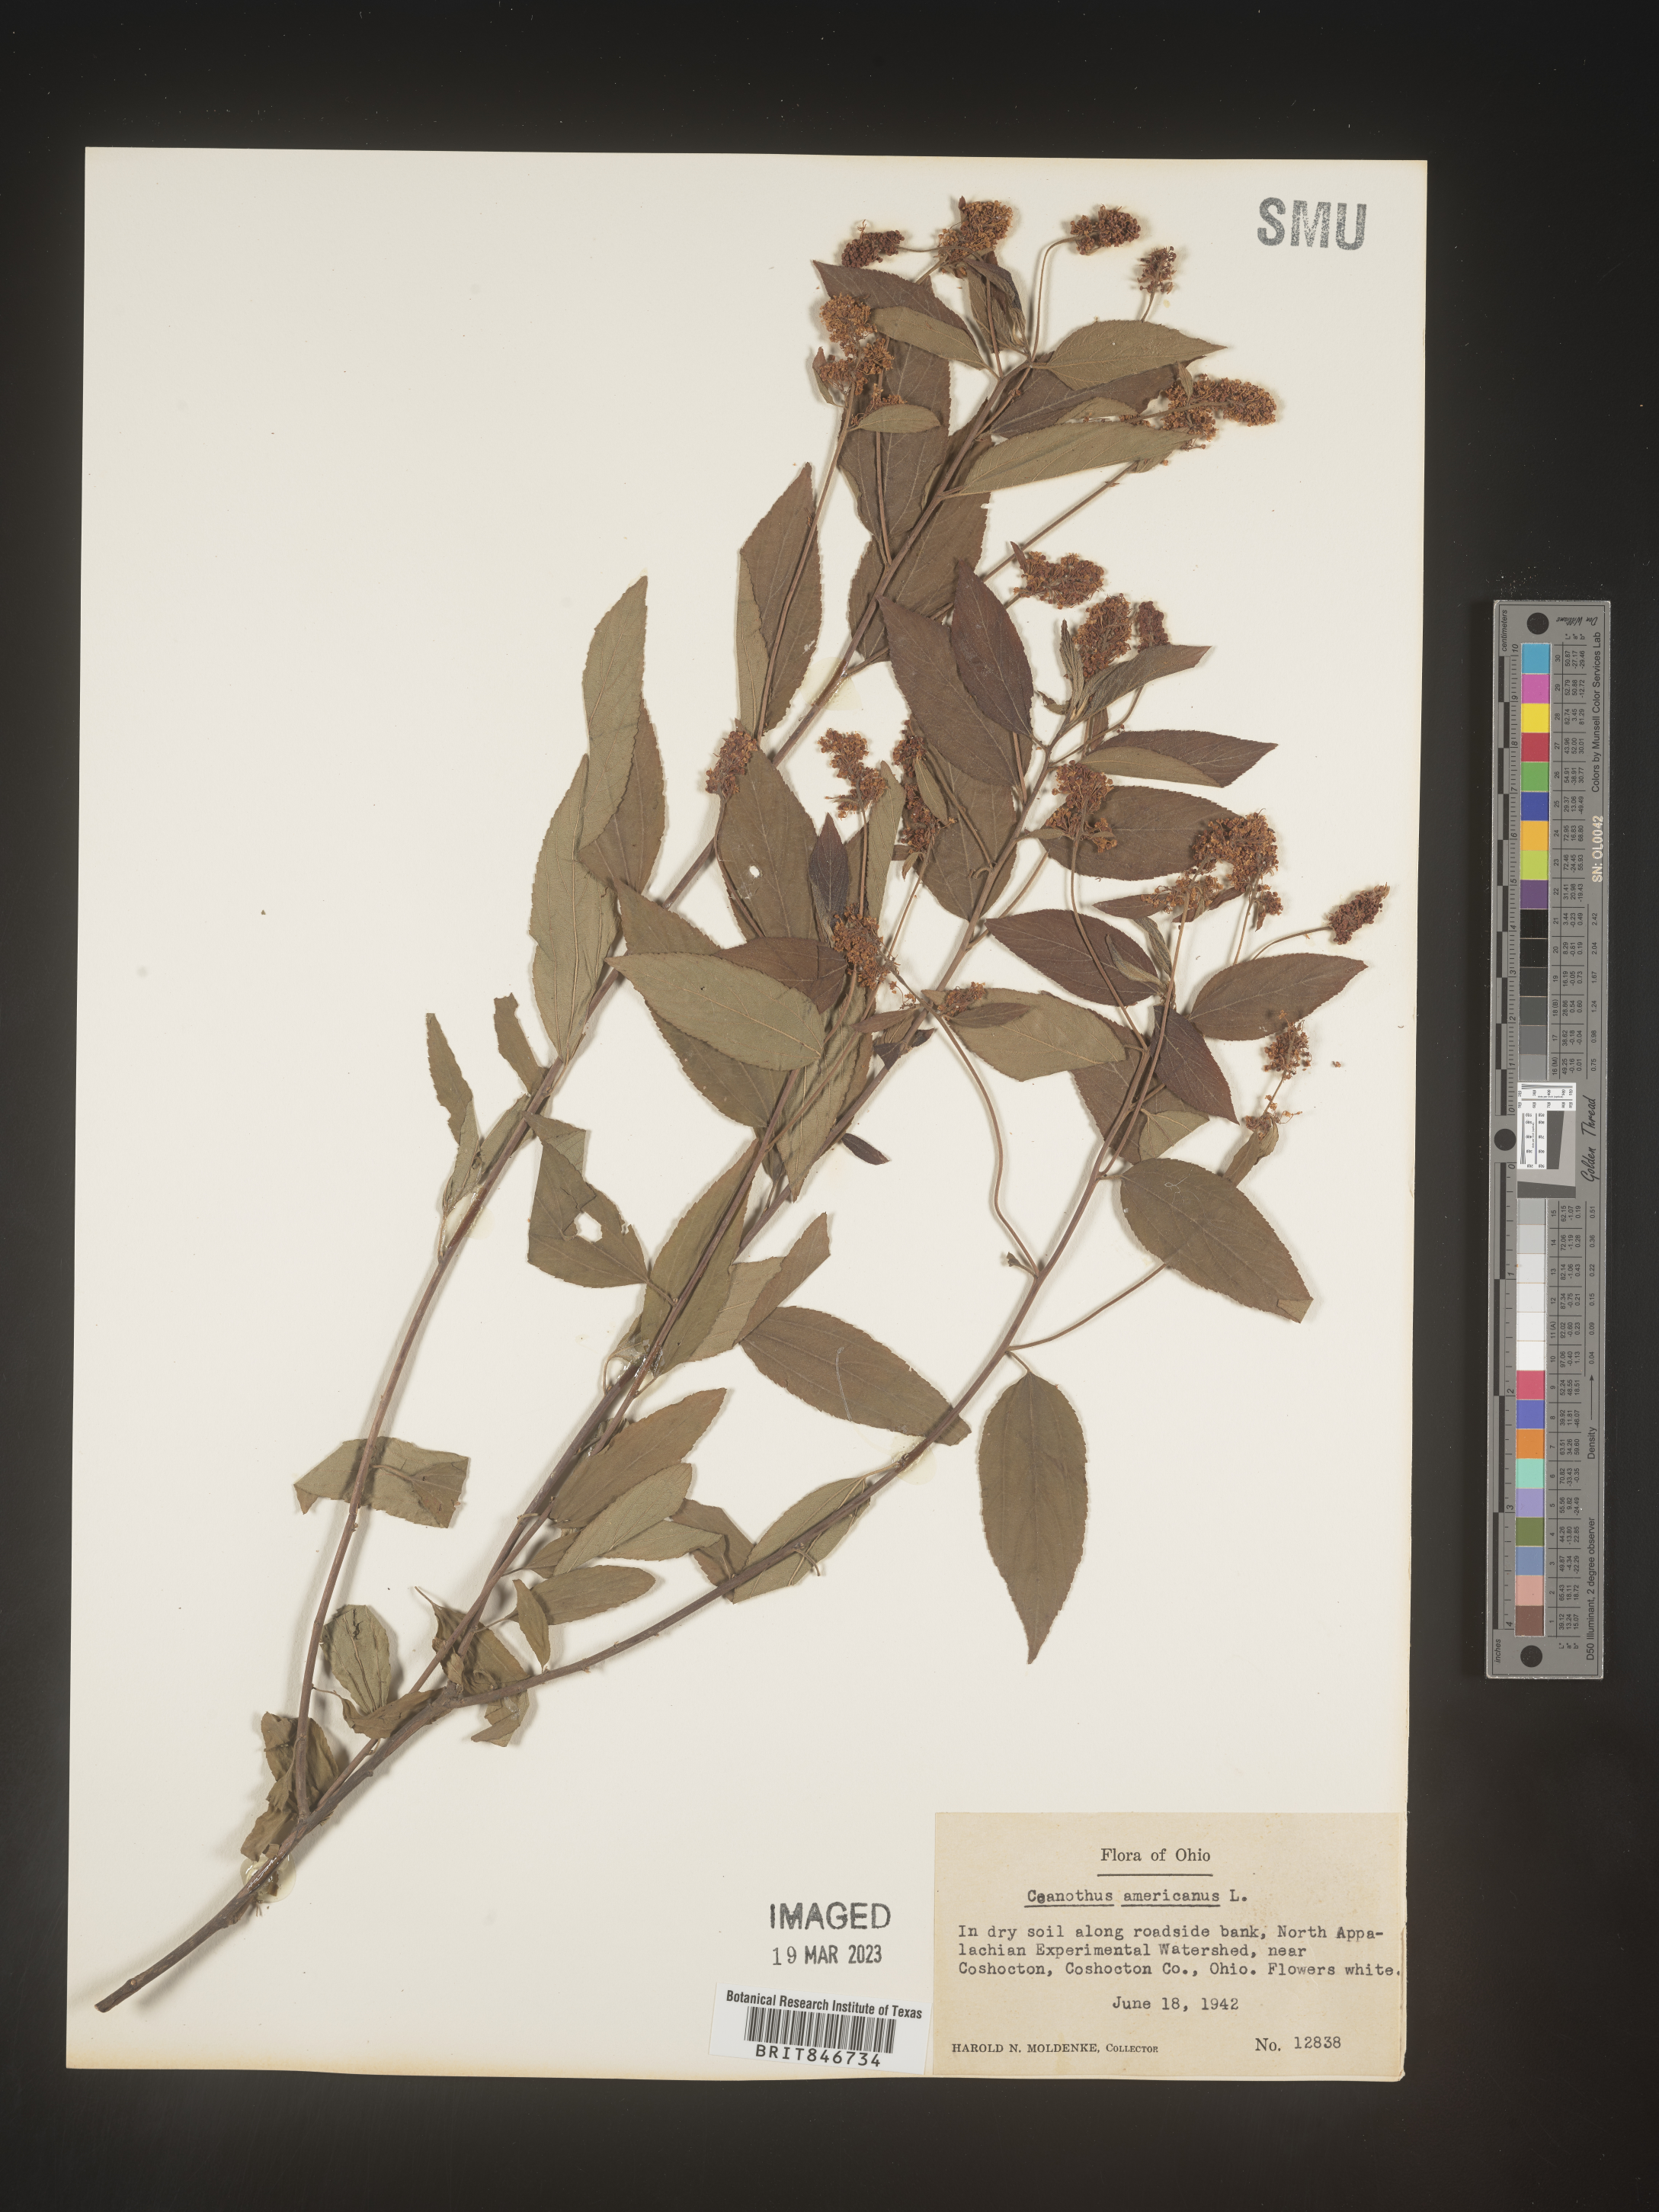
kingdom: Plantae
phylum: Tracheophyta
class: Magnoliopsida
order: Rosales
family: Rhamnaceae
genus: Ceanothus
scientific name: Ceanothus americanus
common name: Redroot
